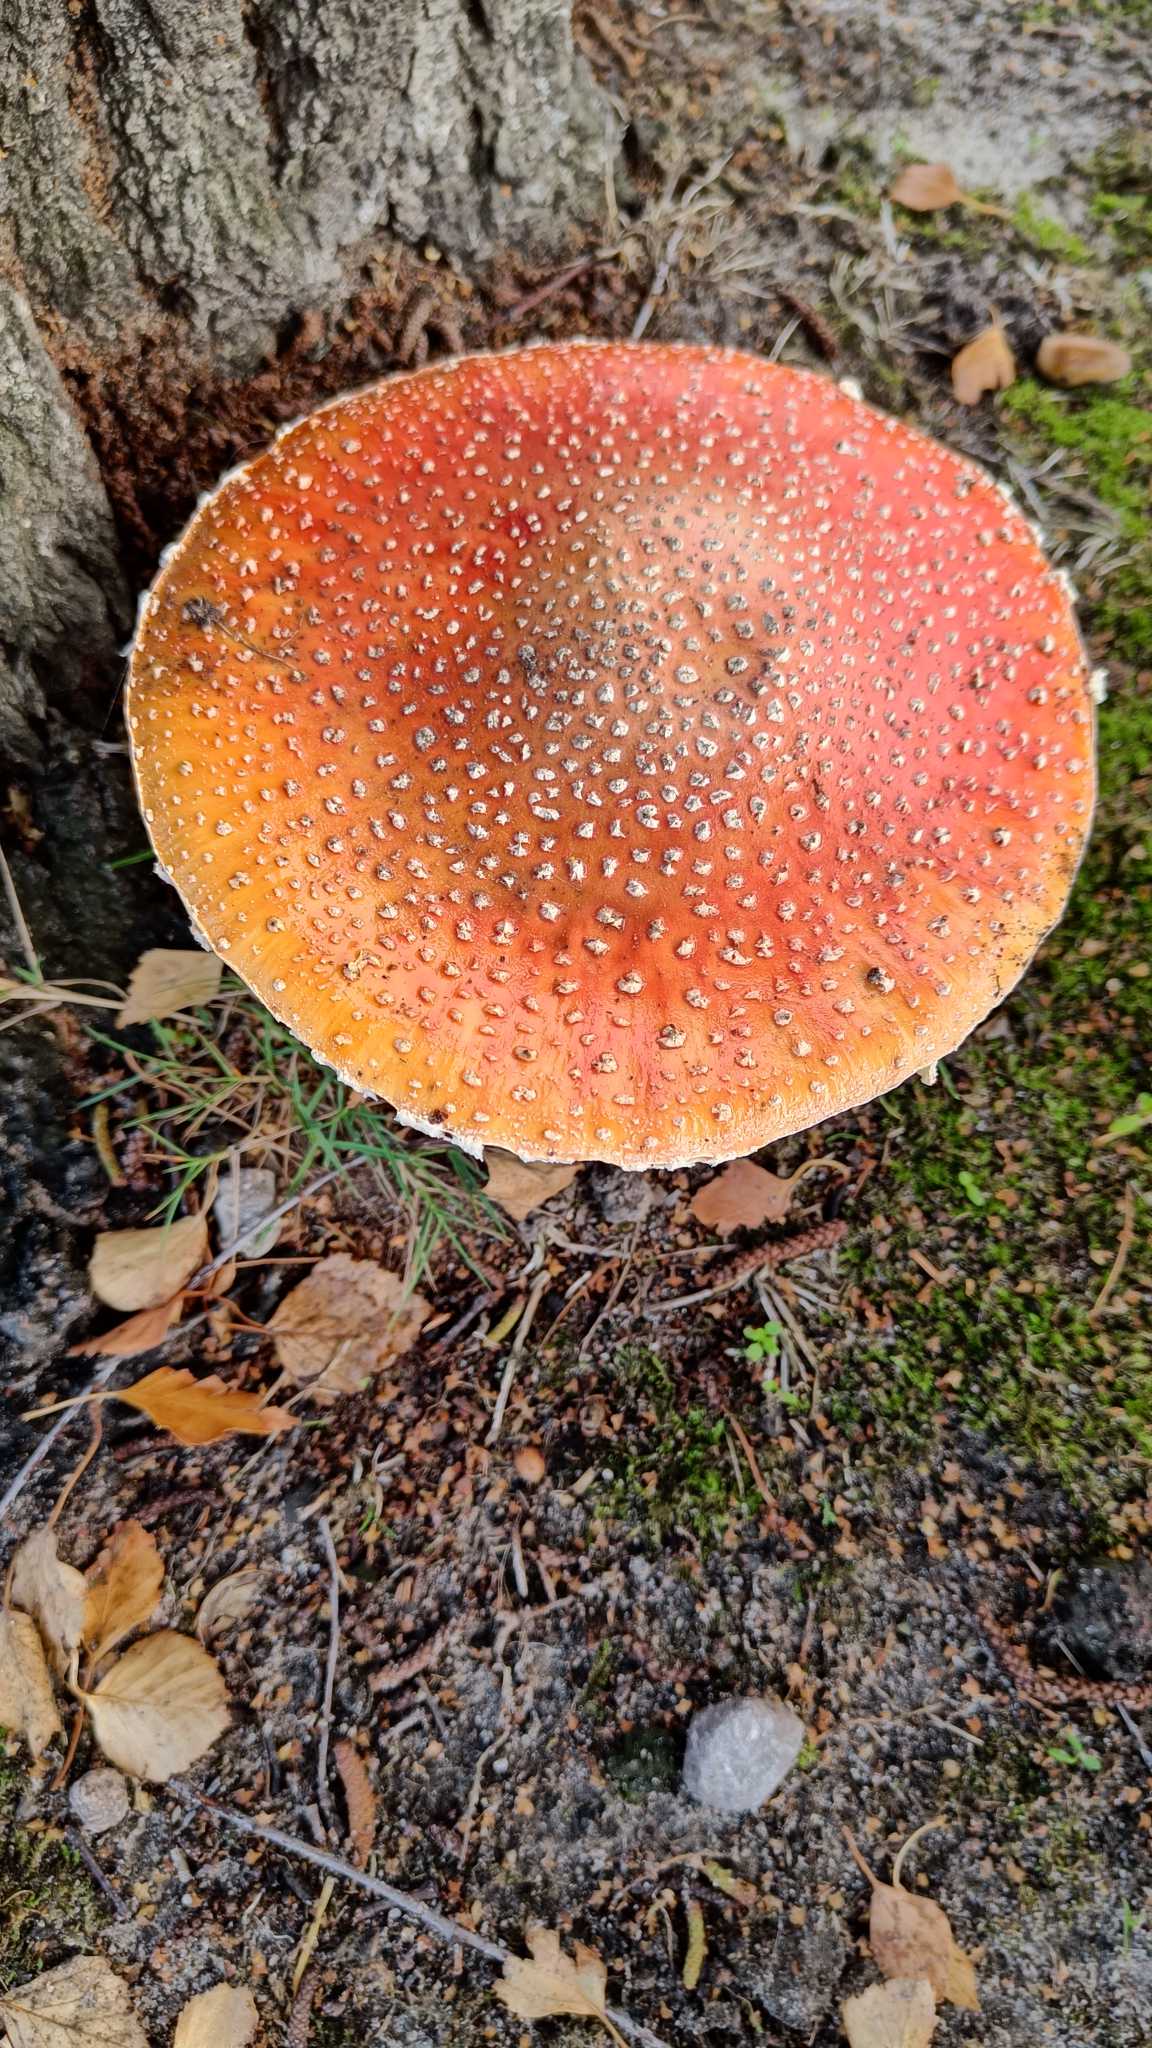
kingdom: Fungi
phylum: Basidiomycota
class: Agaricomycetes
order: Agaricales
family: Amanitaceae
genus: Amanita
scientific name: Amanita muscaria
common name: Rød fluesvamp
